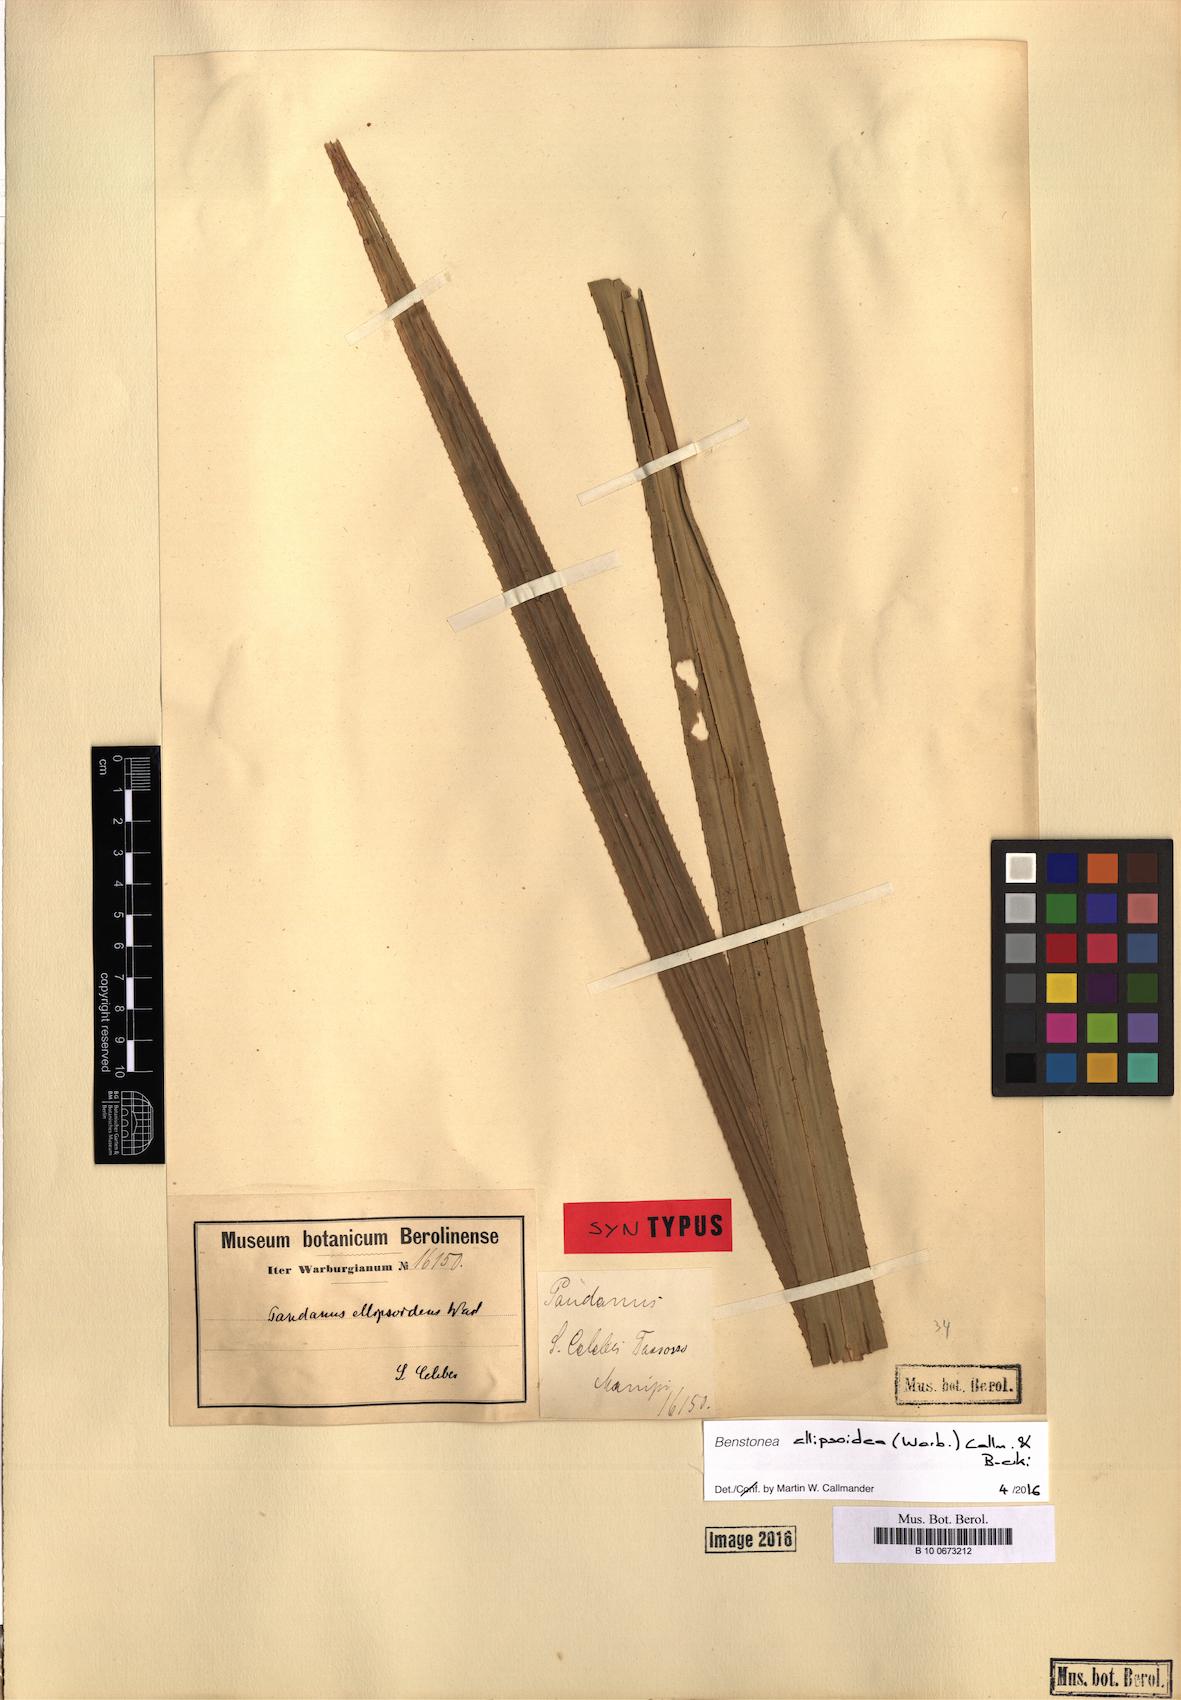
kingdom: Plantae
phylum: Tracheophyta
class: Liliopsida
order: Pandanales
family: Pandanaceae
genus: Benstonea
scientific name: Benstonea ellipsoidea
